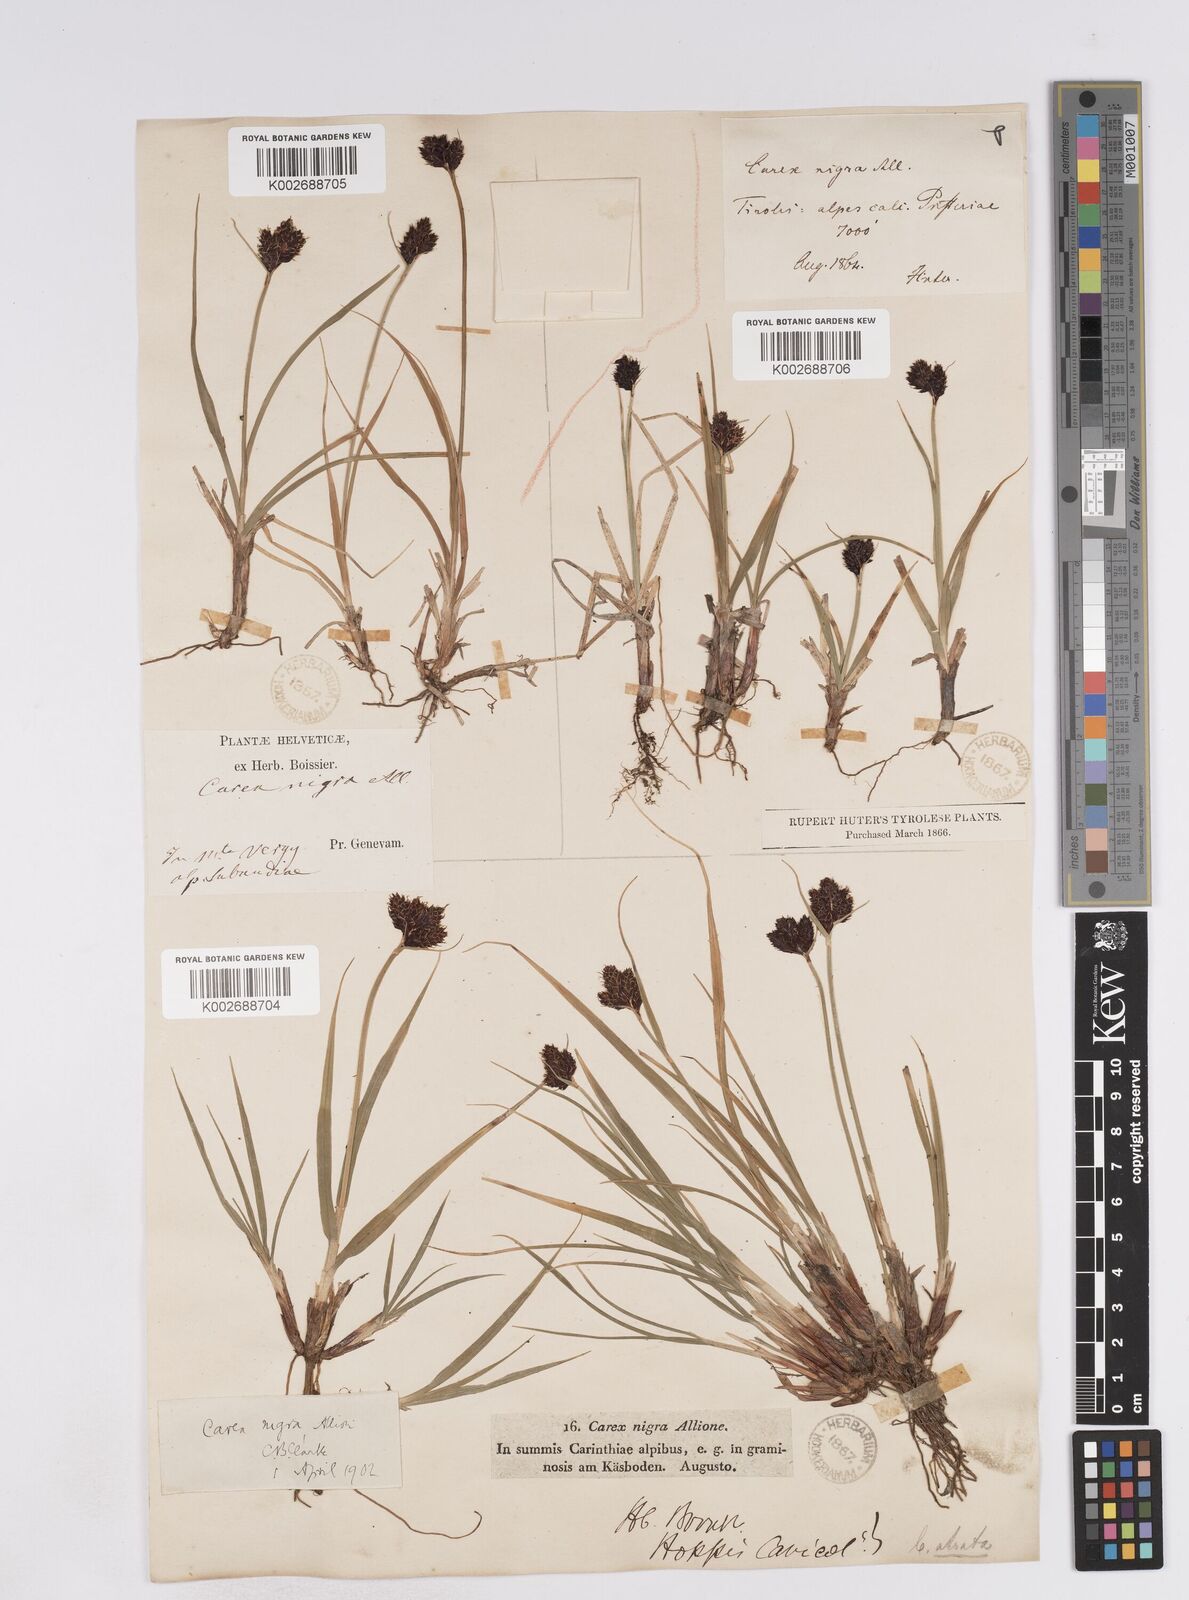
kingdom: Plantae
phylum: Tracheophyta
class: Liliopsida
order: Poales
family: Cyperaceae
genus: Carex
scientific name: Carex parviflora
